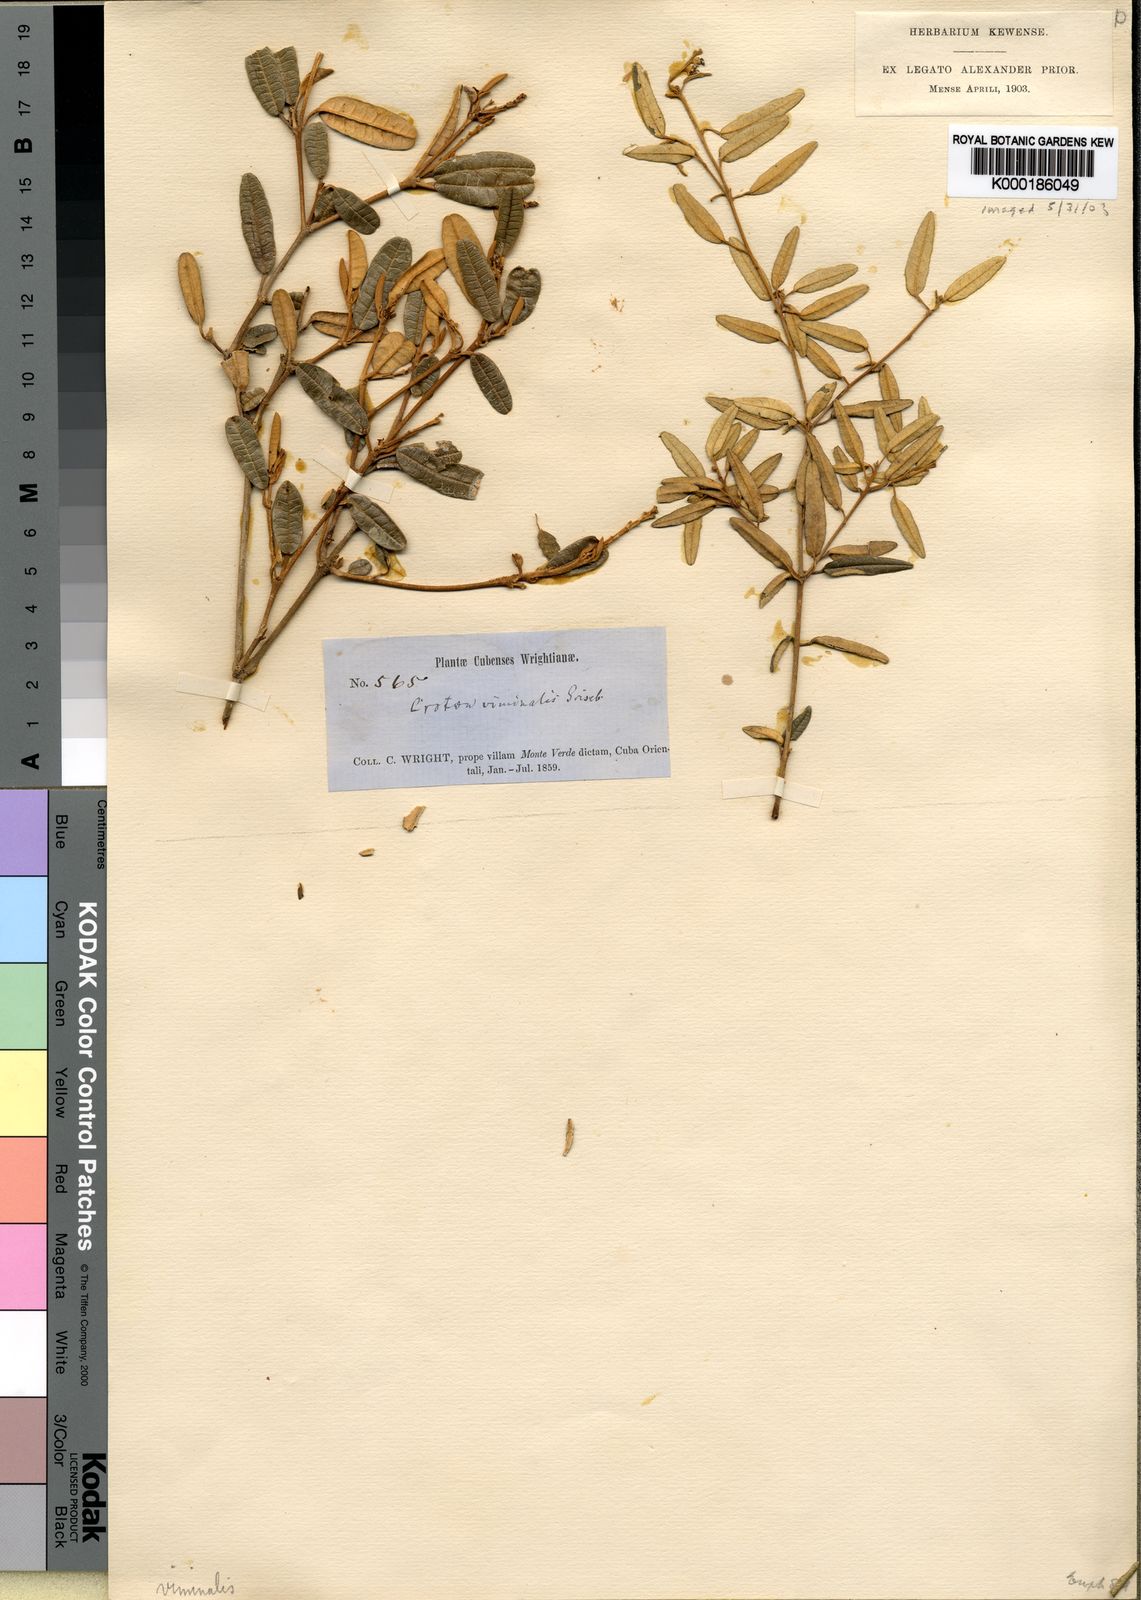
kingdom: Plantae
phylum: Tracheophyta
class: Magnoliopsida
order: Malpighiales
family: Euphorbiaceae
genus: Croton
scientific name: Croton viminalis
